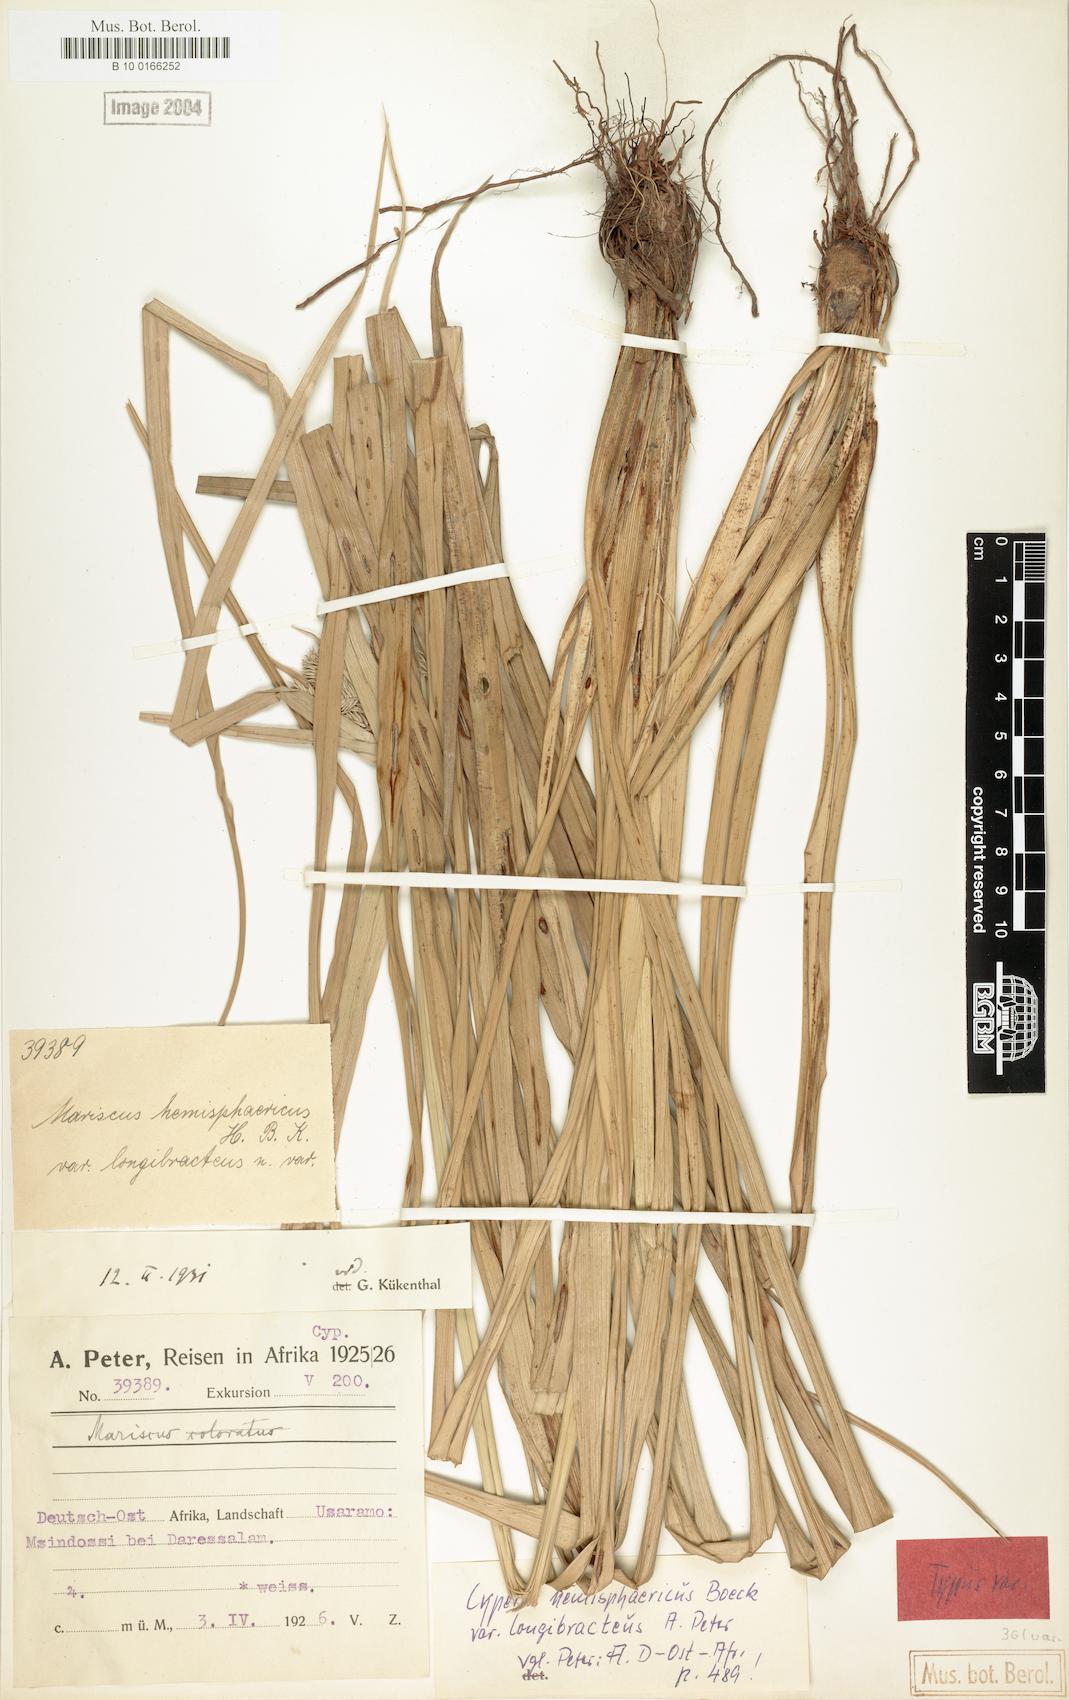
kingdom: Plantae
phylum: Tracheophyta
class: Liliopsida
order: Poales
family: Cyperaceae
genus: Cyperus
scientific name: Cyperus hemisphaericus
